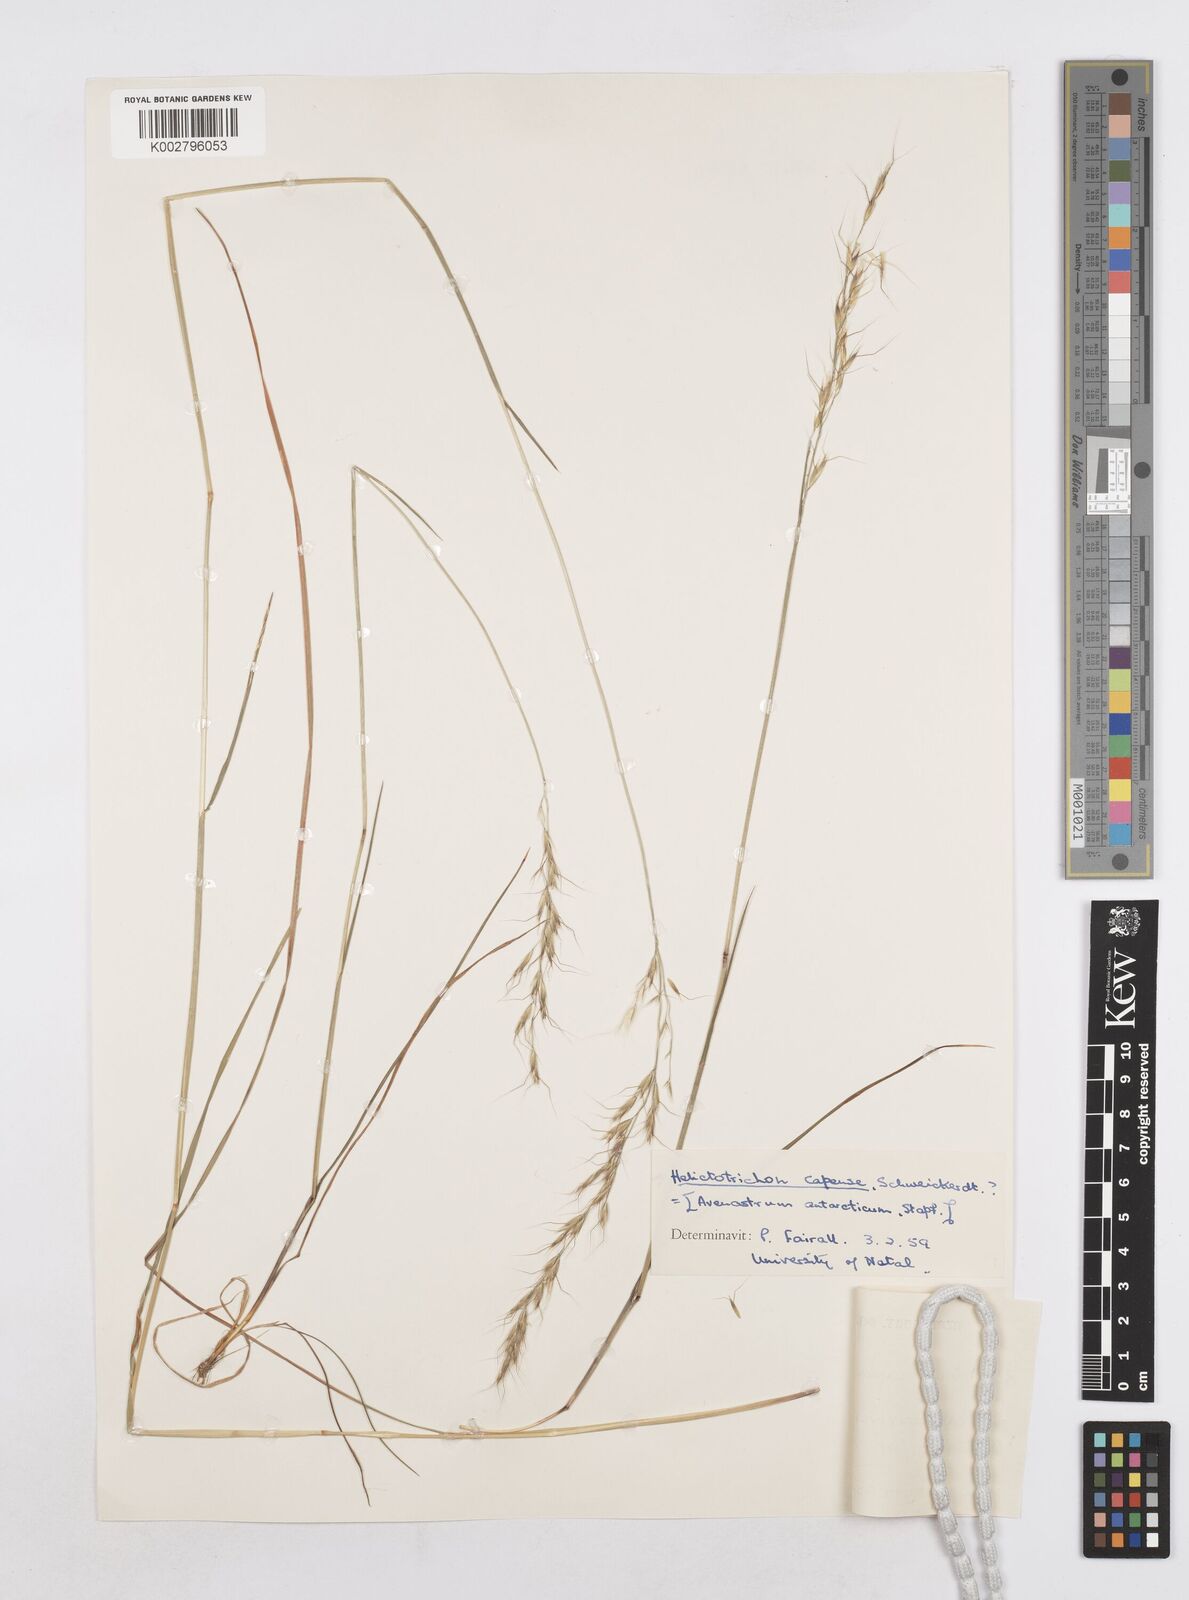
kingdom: Plantae
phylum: Tracheophyta
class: Liliopsida
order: Poales
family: Poaceae
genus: Trisetopsis
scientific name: Trisetopsis capensis
